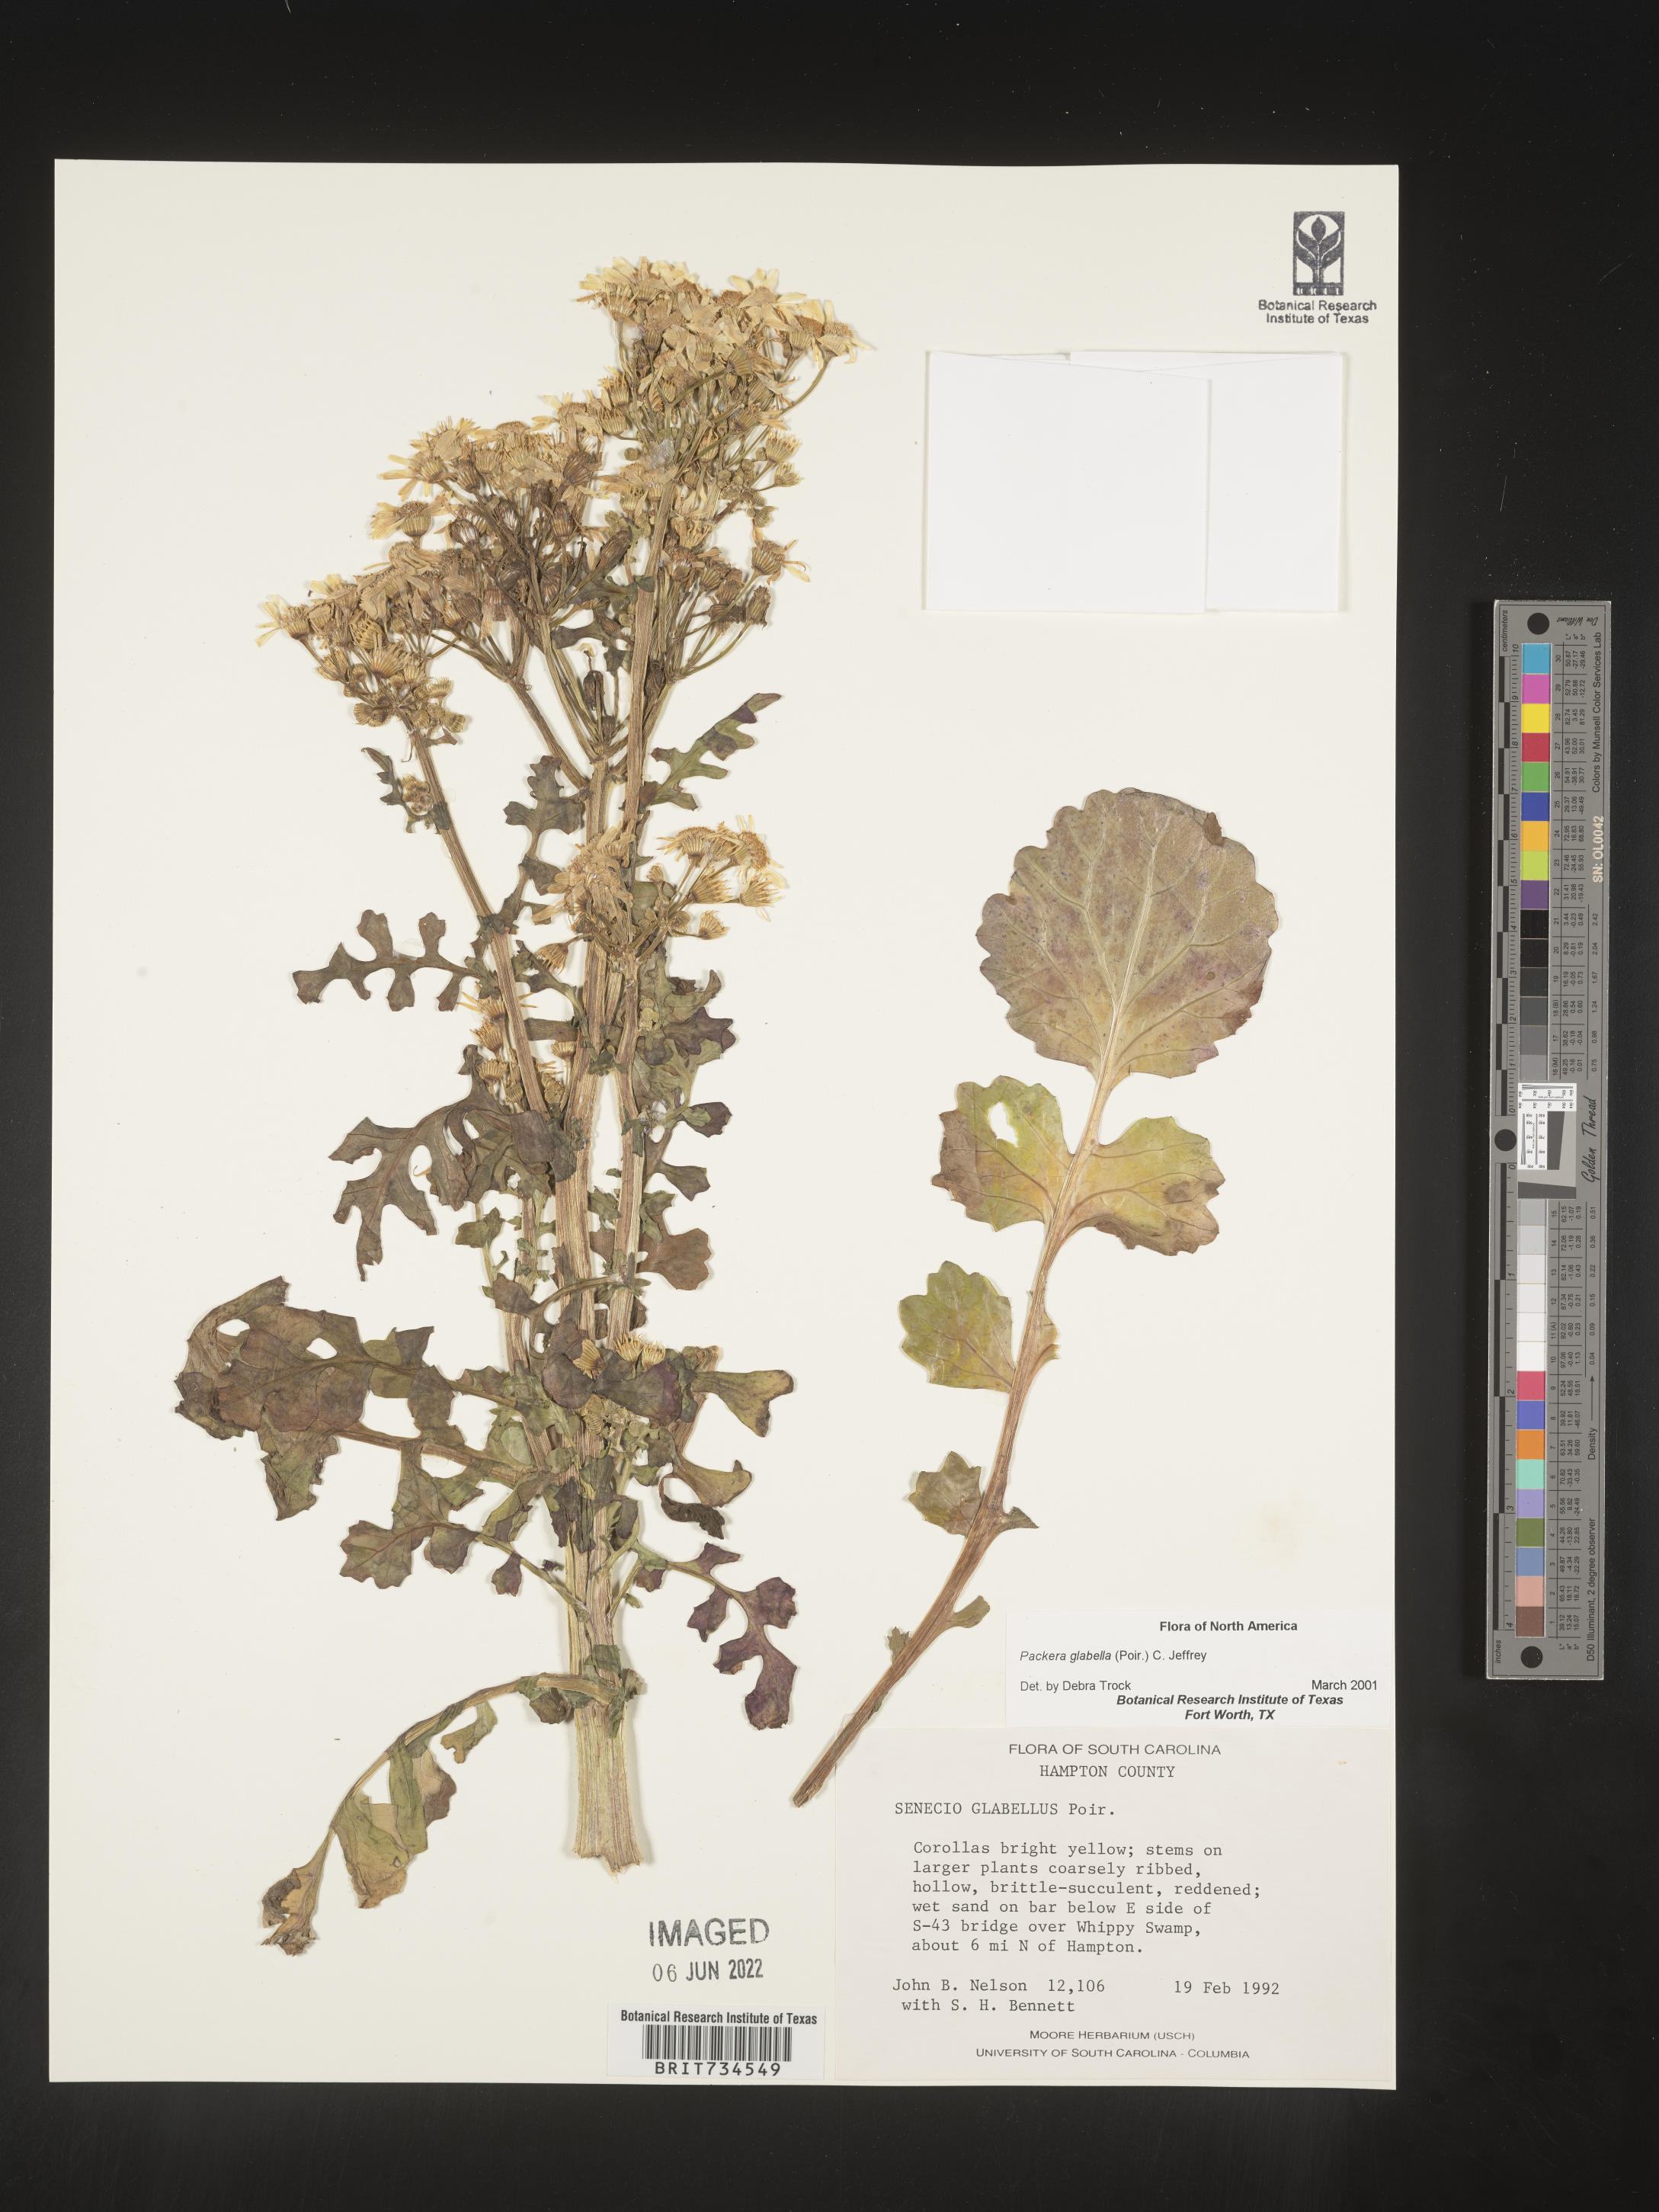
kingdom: Plantae
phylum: Tracheophyta
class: Magnoliopsida
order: Asterales
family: Asteraceae
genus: Packera
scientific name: Packera glabella
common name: Butterweed
